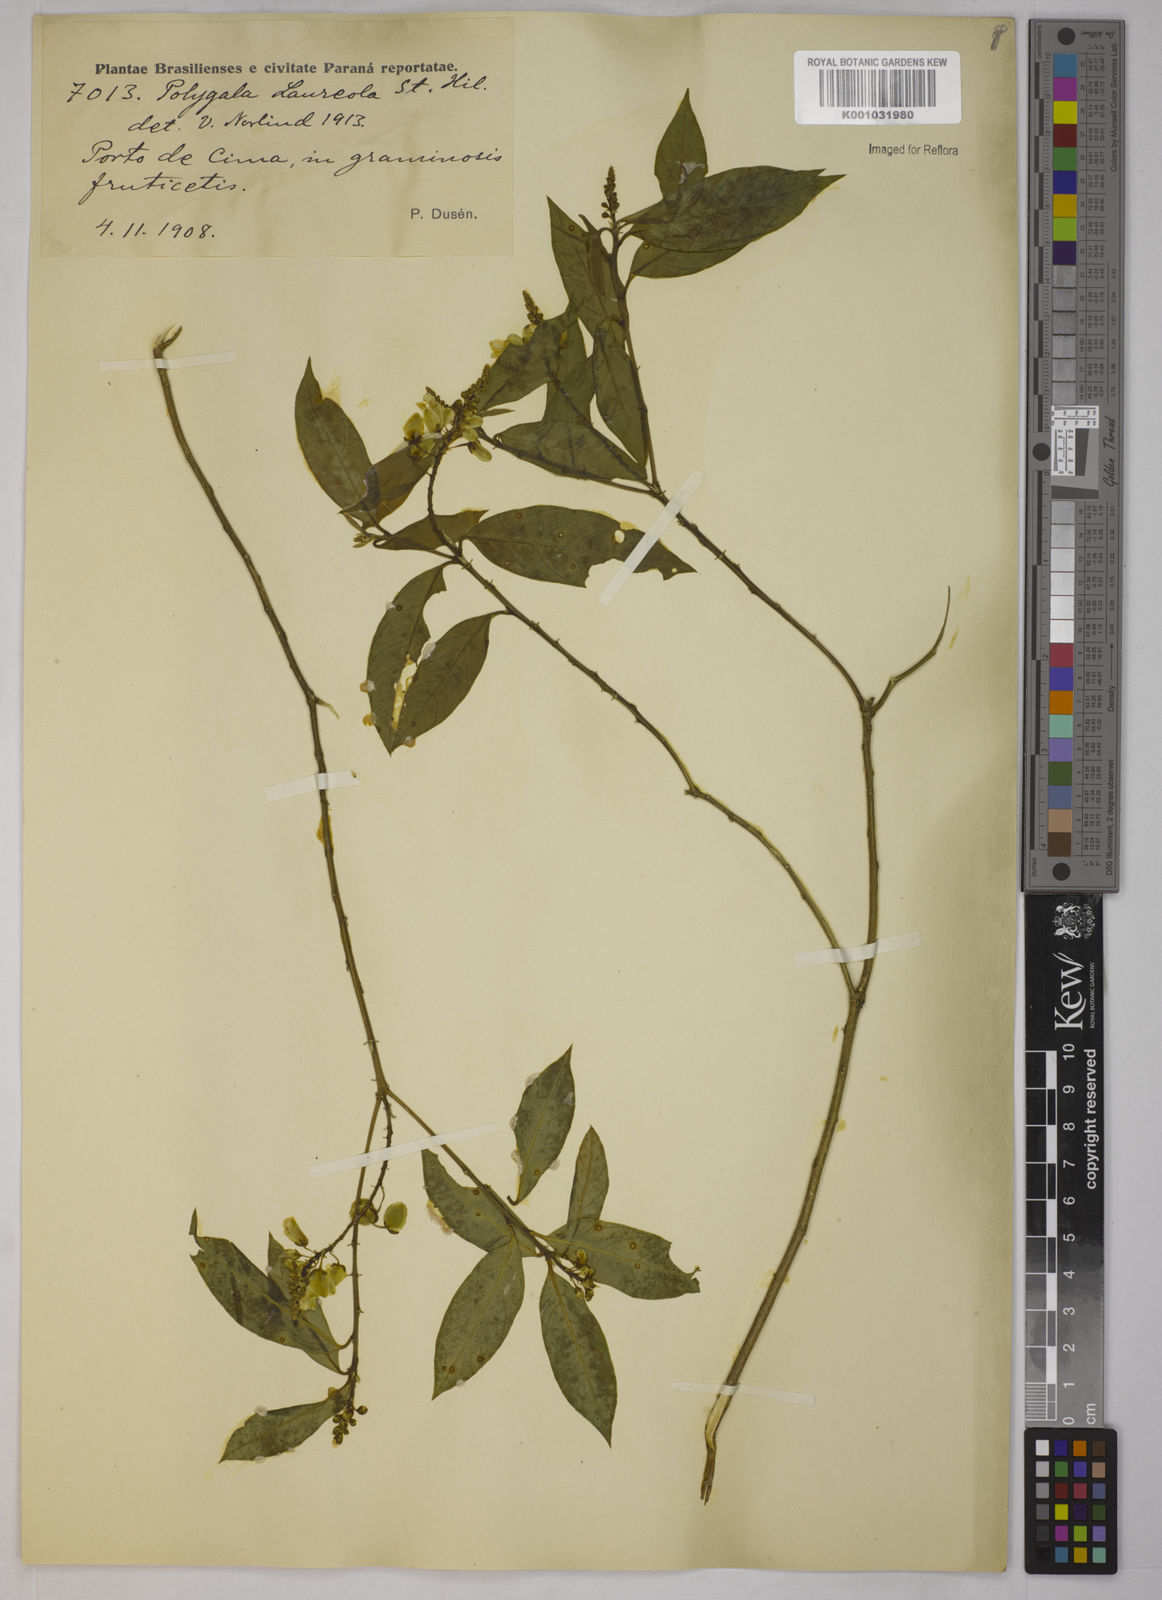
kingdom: Plantae
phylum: Tracheophyta
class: Magnoliopsida
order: Fabales
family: Polygalaceae
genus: Caamembeca
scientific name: Caamembeca salicifolia
